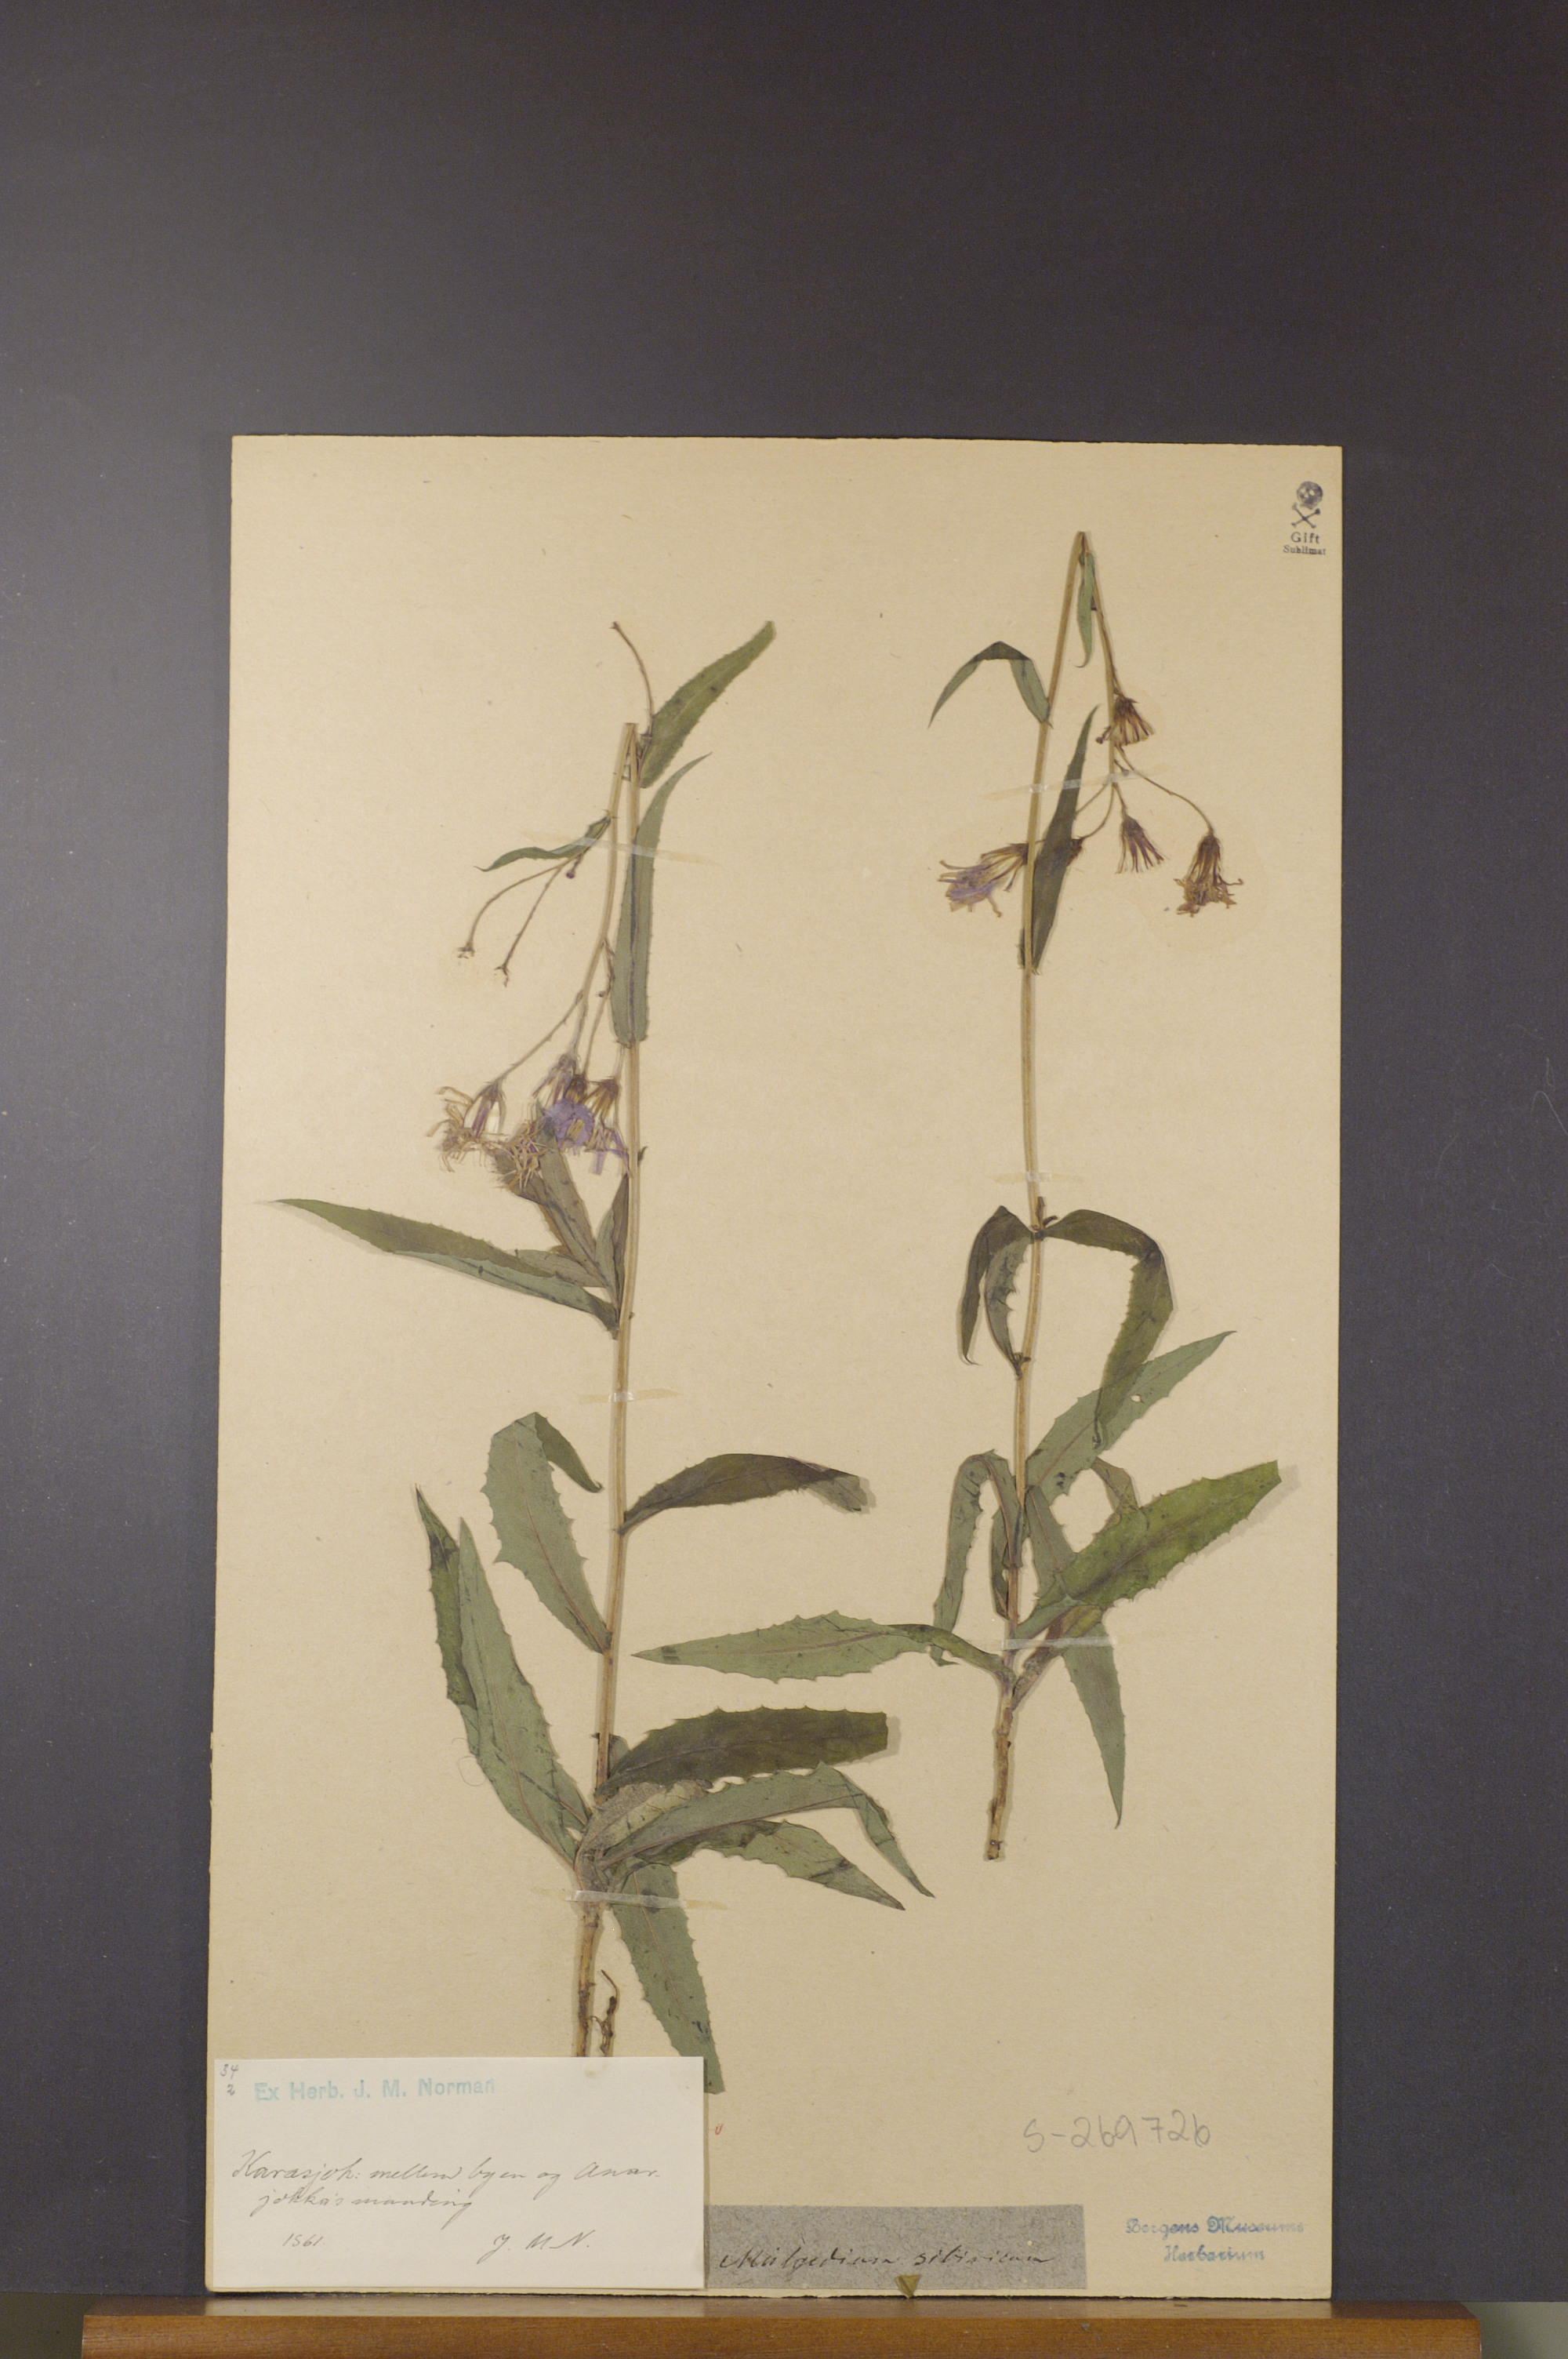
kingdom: Plantae
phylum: Tracheophyta
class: Magnoliopsida
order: Asterales
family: Asteraceae
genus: Lactuca
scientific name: Lactuca sibirica
